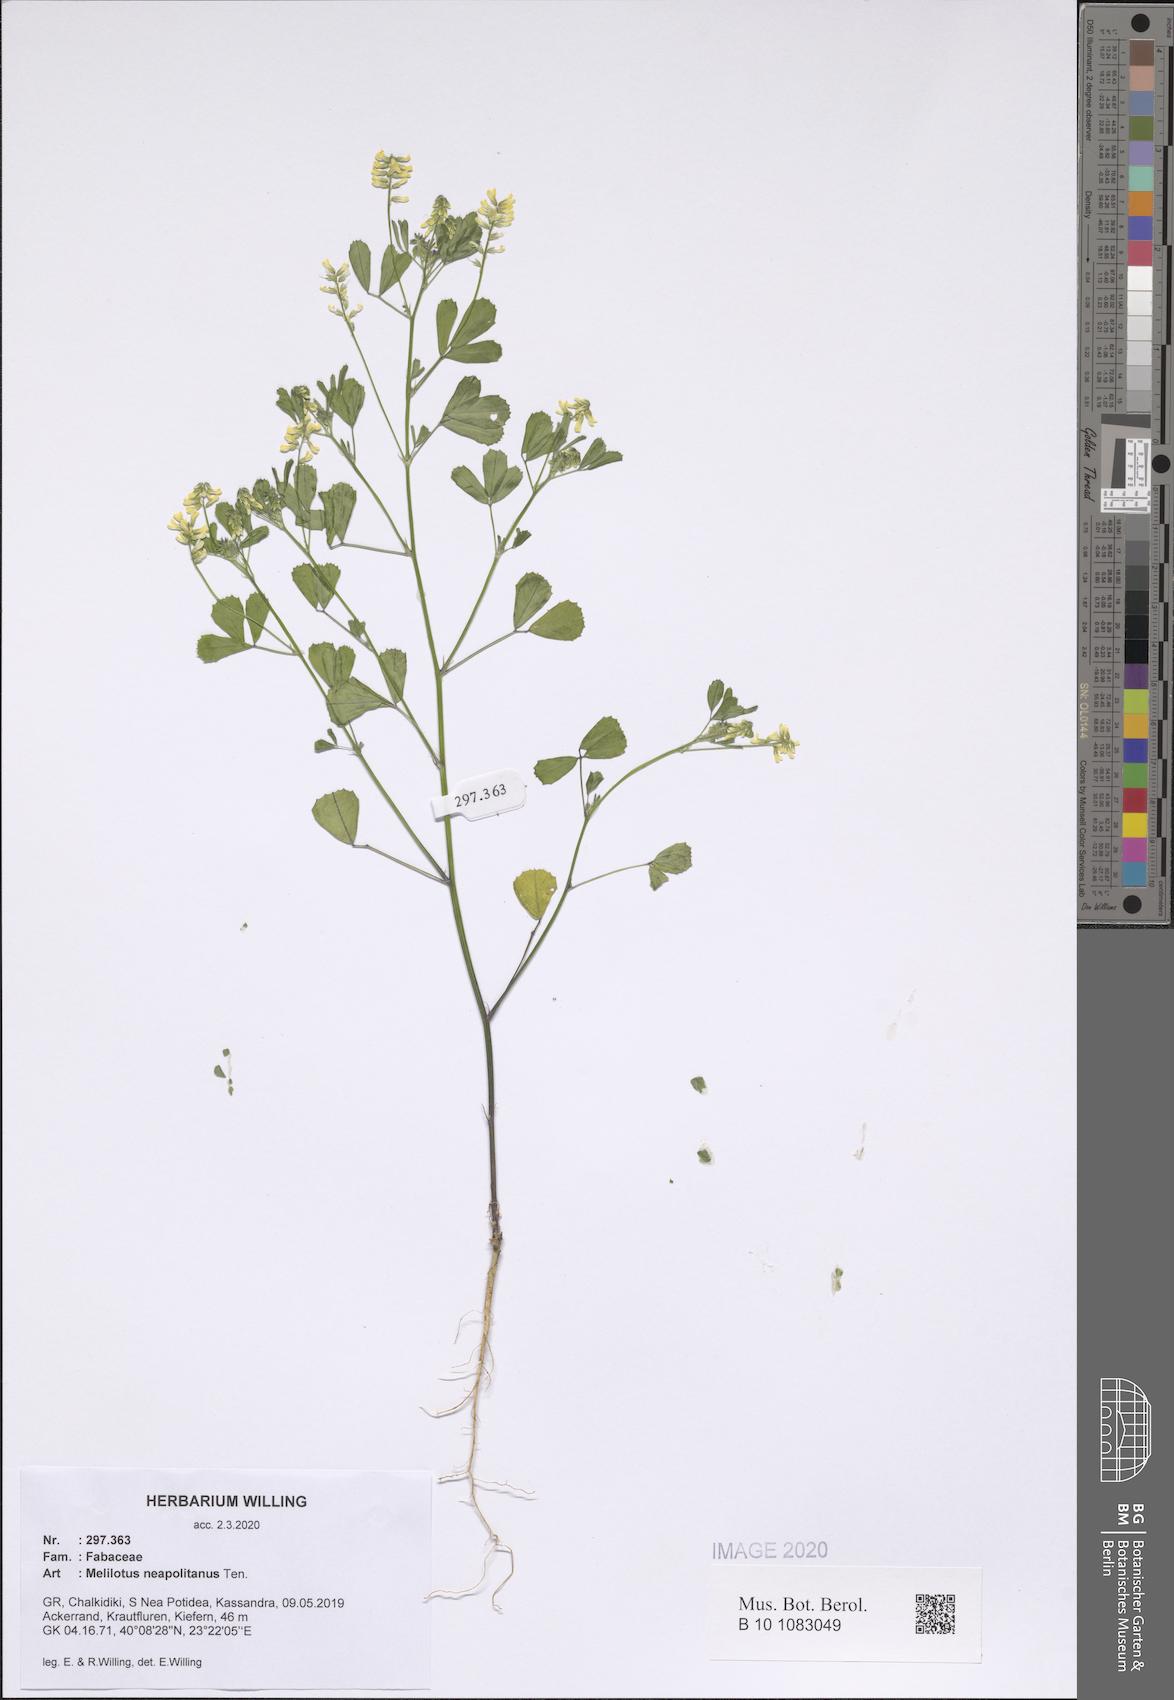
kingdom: Plantae
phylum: Tracheophyta
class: Magnoliopsida
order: Fabales
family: Fabaceae
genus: Melilotus
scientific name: Melilotus neapolitanus
